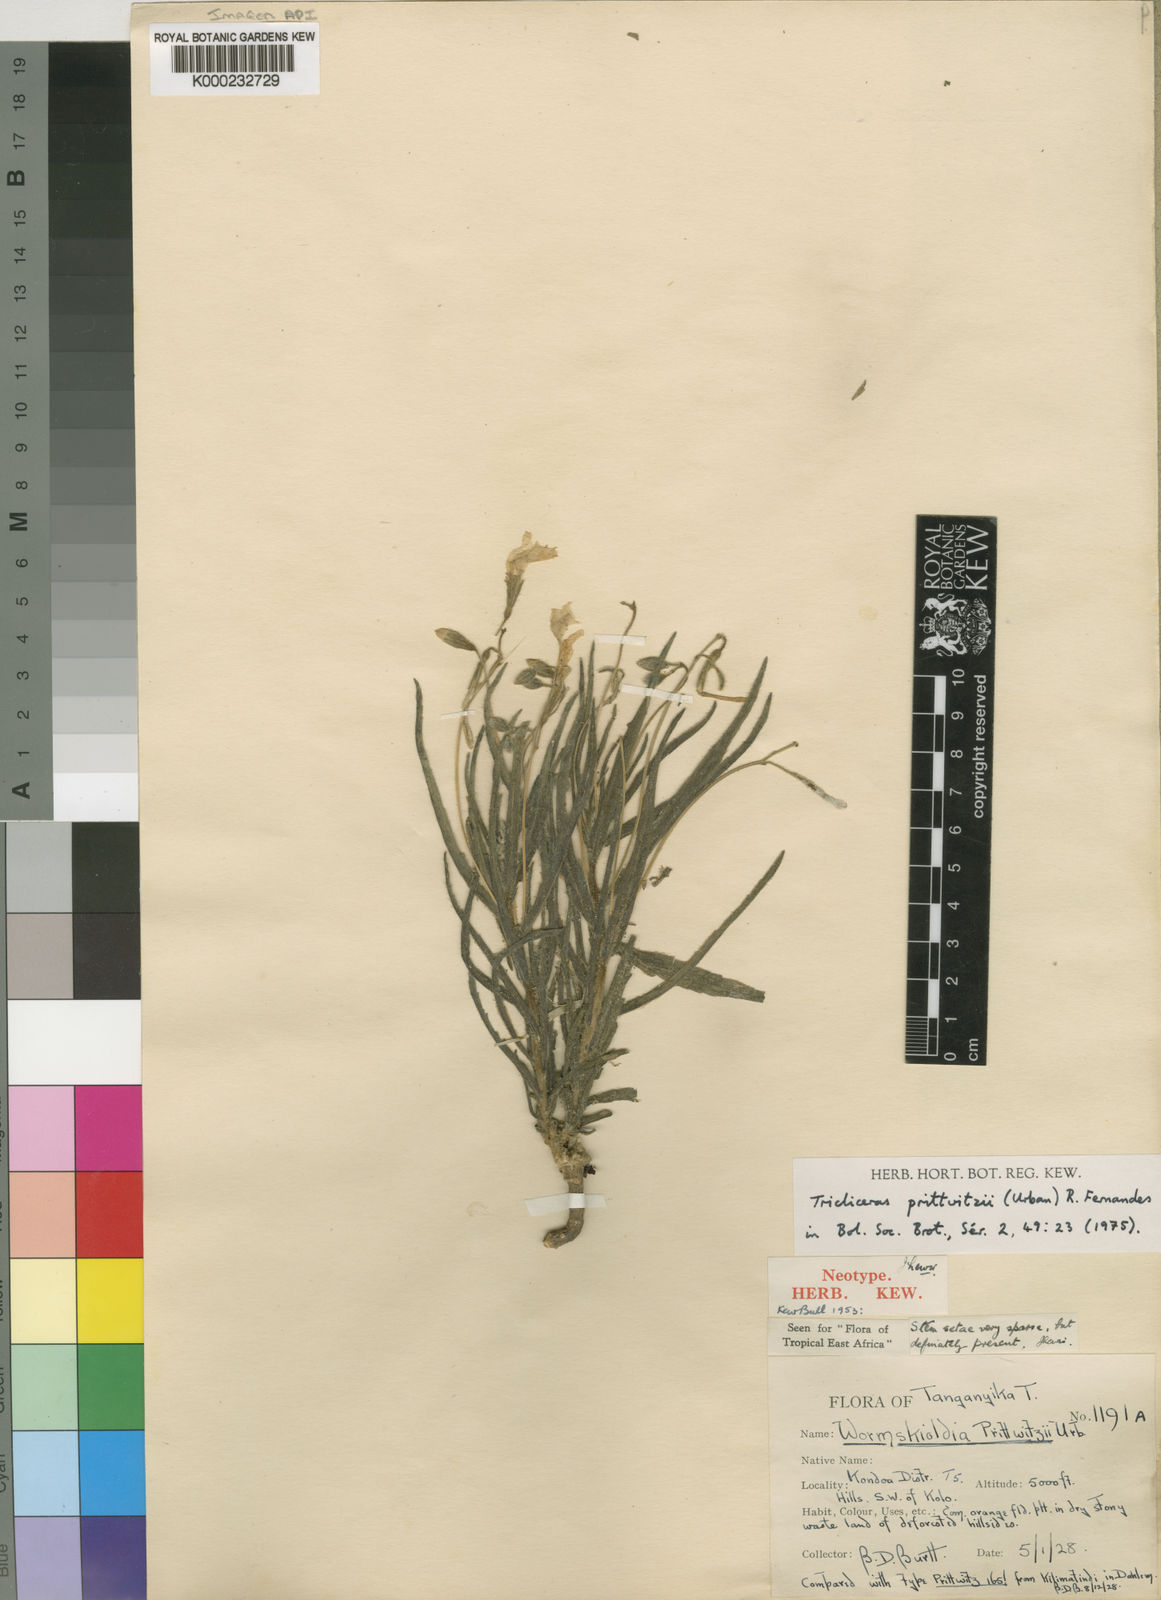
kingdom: Plantae
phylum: Tracheophyta
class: Magnoliopsida
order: Malpighiales
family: Turneraceae
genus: Tricliceras
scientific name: Tricliceras prittwitzii
